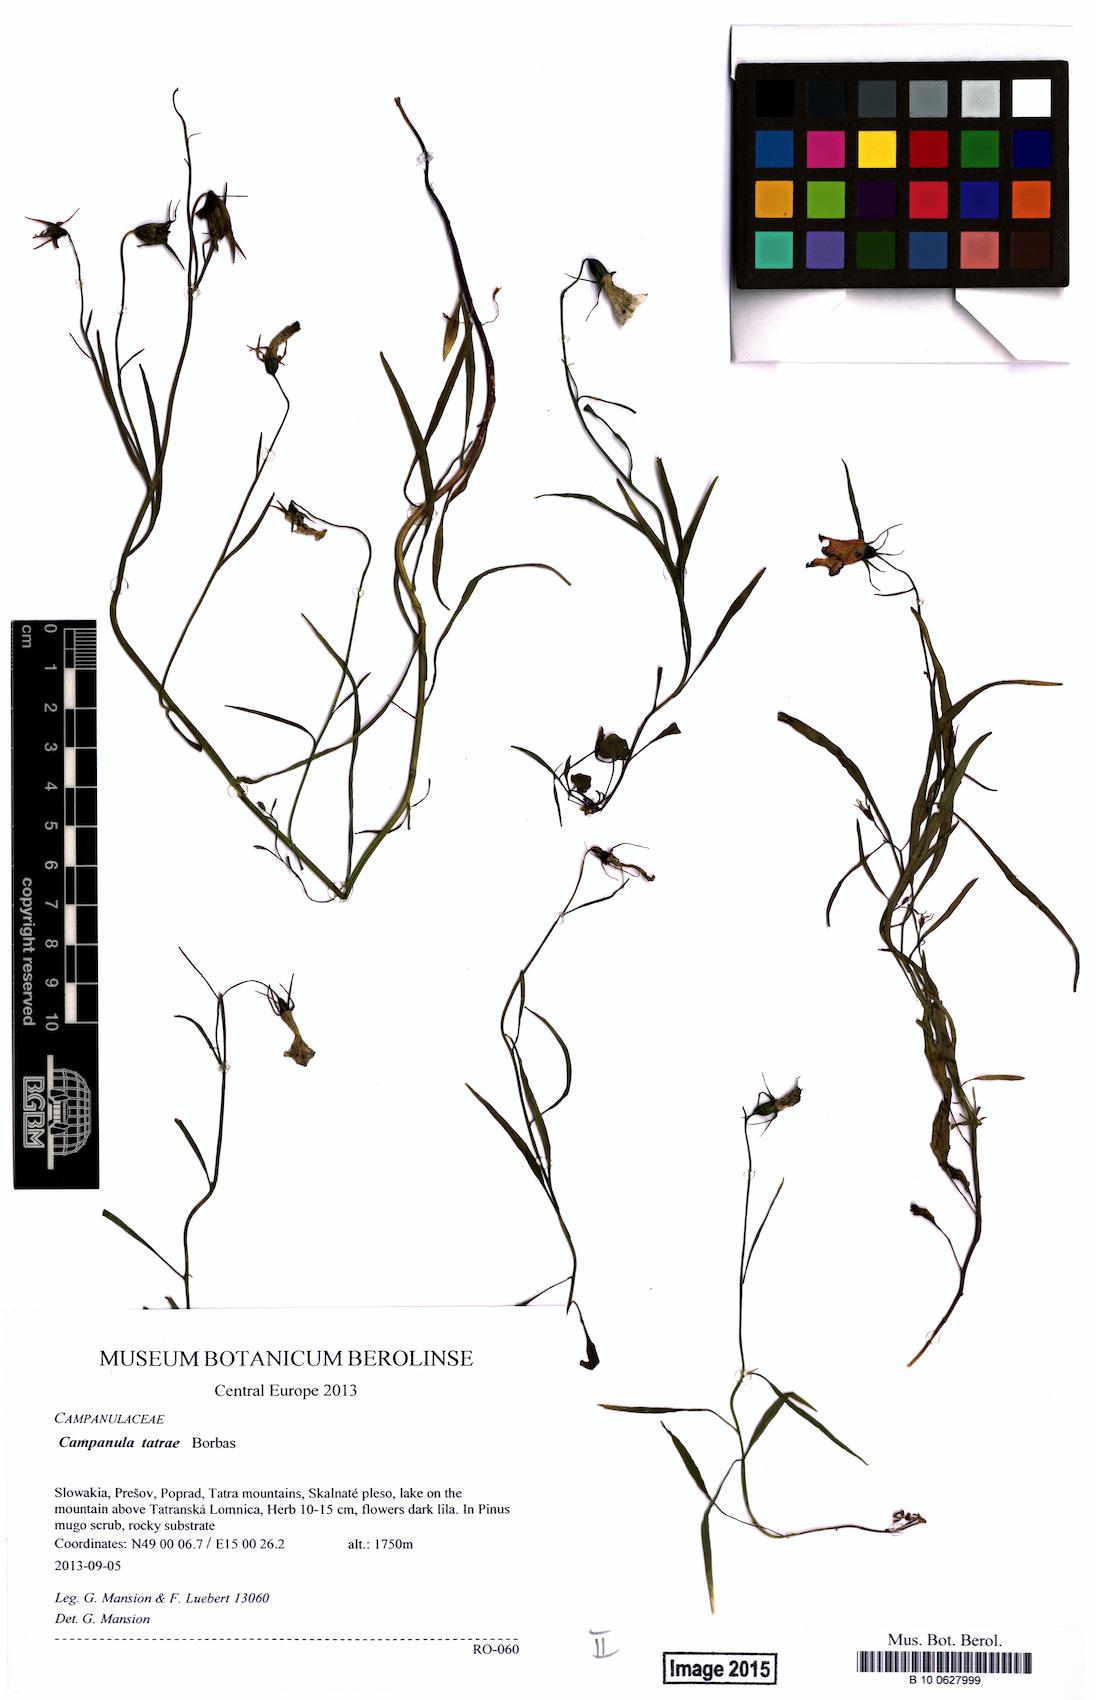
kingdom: Plantae
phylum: Tracheophyta
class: Magnoliopsida
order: Asterales
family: Campanulaceae
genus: Campanula
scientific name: Campanula tatrae
